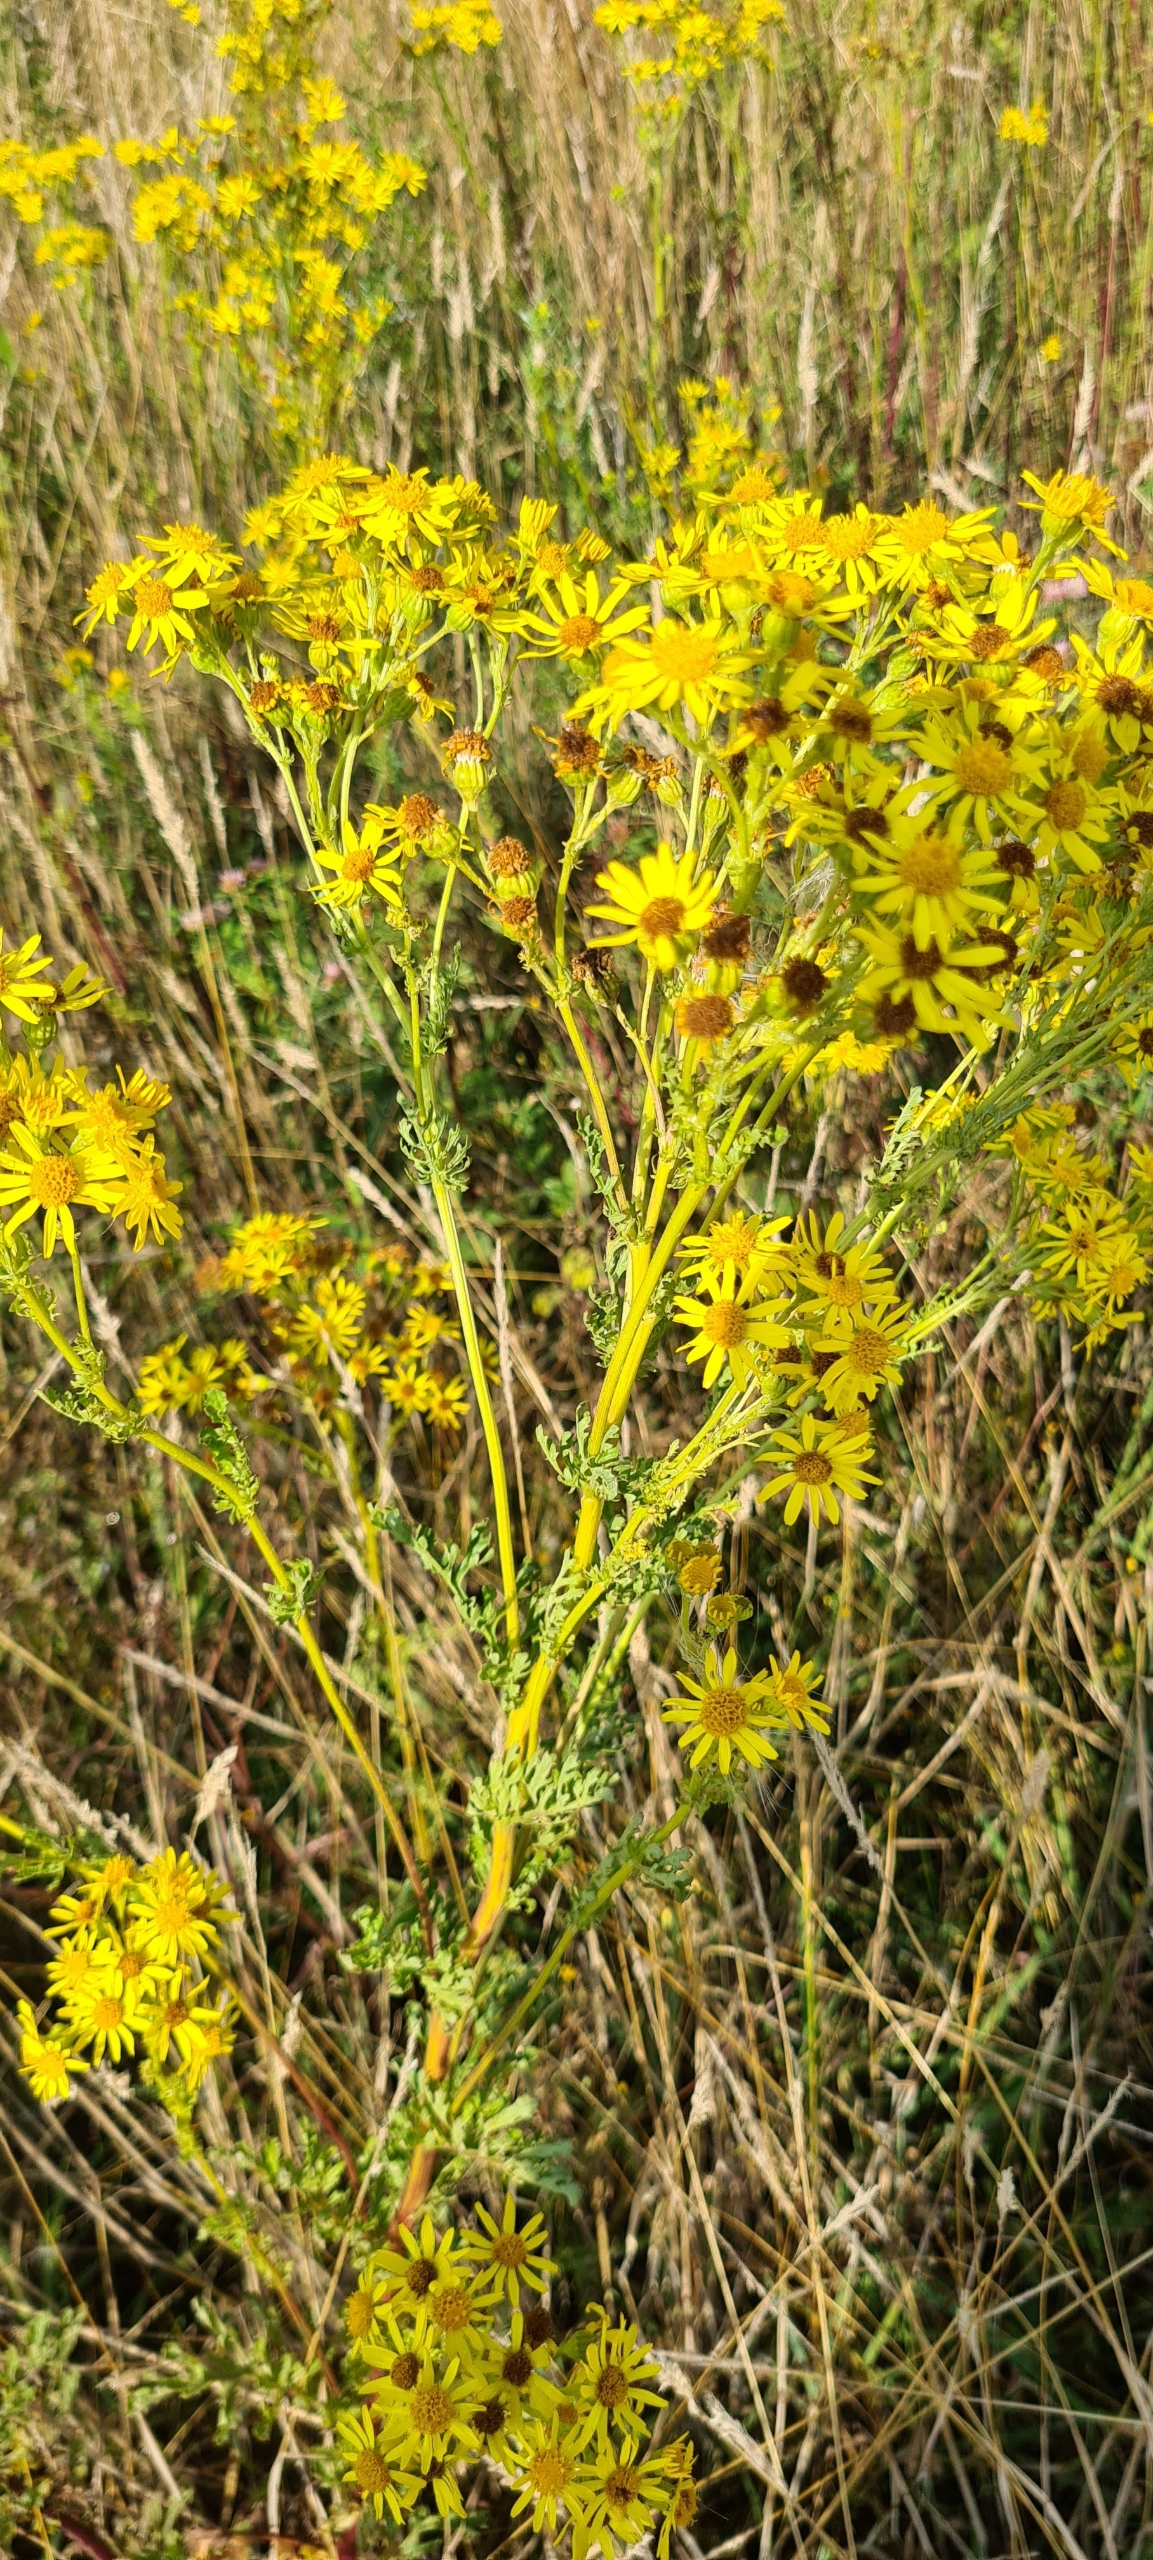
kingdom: Plantae
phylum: Tracheophyta
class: Magnoliopsida
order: Asterales
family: Asteraceae
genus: Jacobaea
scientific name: Jacobaea vulgaris
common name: Eng-brandbæger
